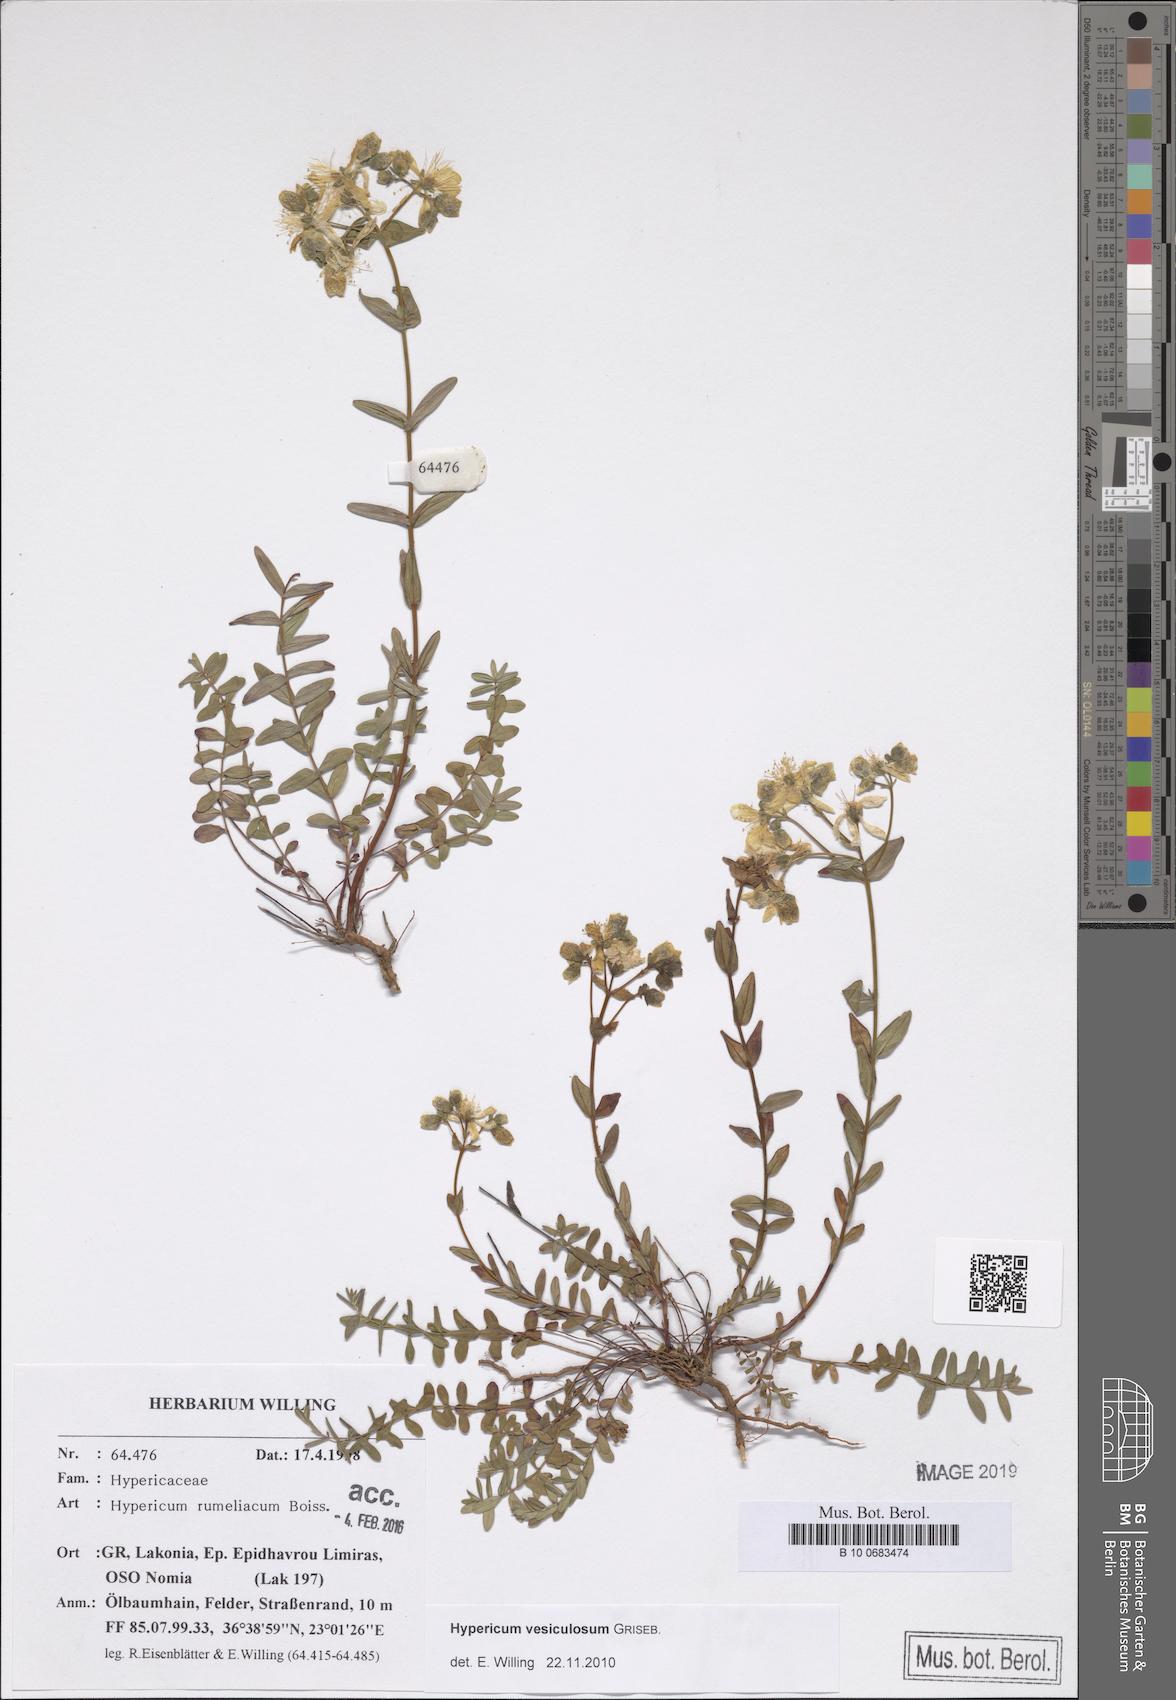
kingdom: Plantae
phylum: Tracheophyta
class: Magnoliopsida
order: Malpighiales
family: Hypericaceae
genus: Hypericum
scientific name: Hypericum perfoliatum
